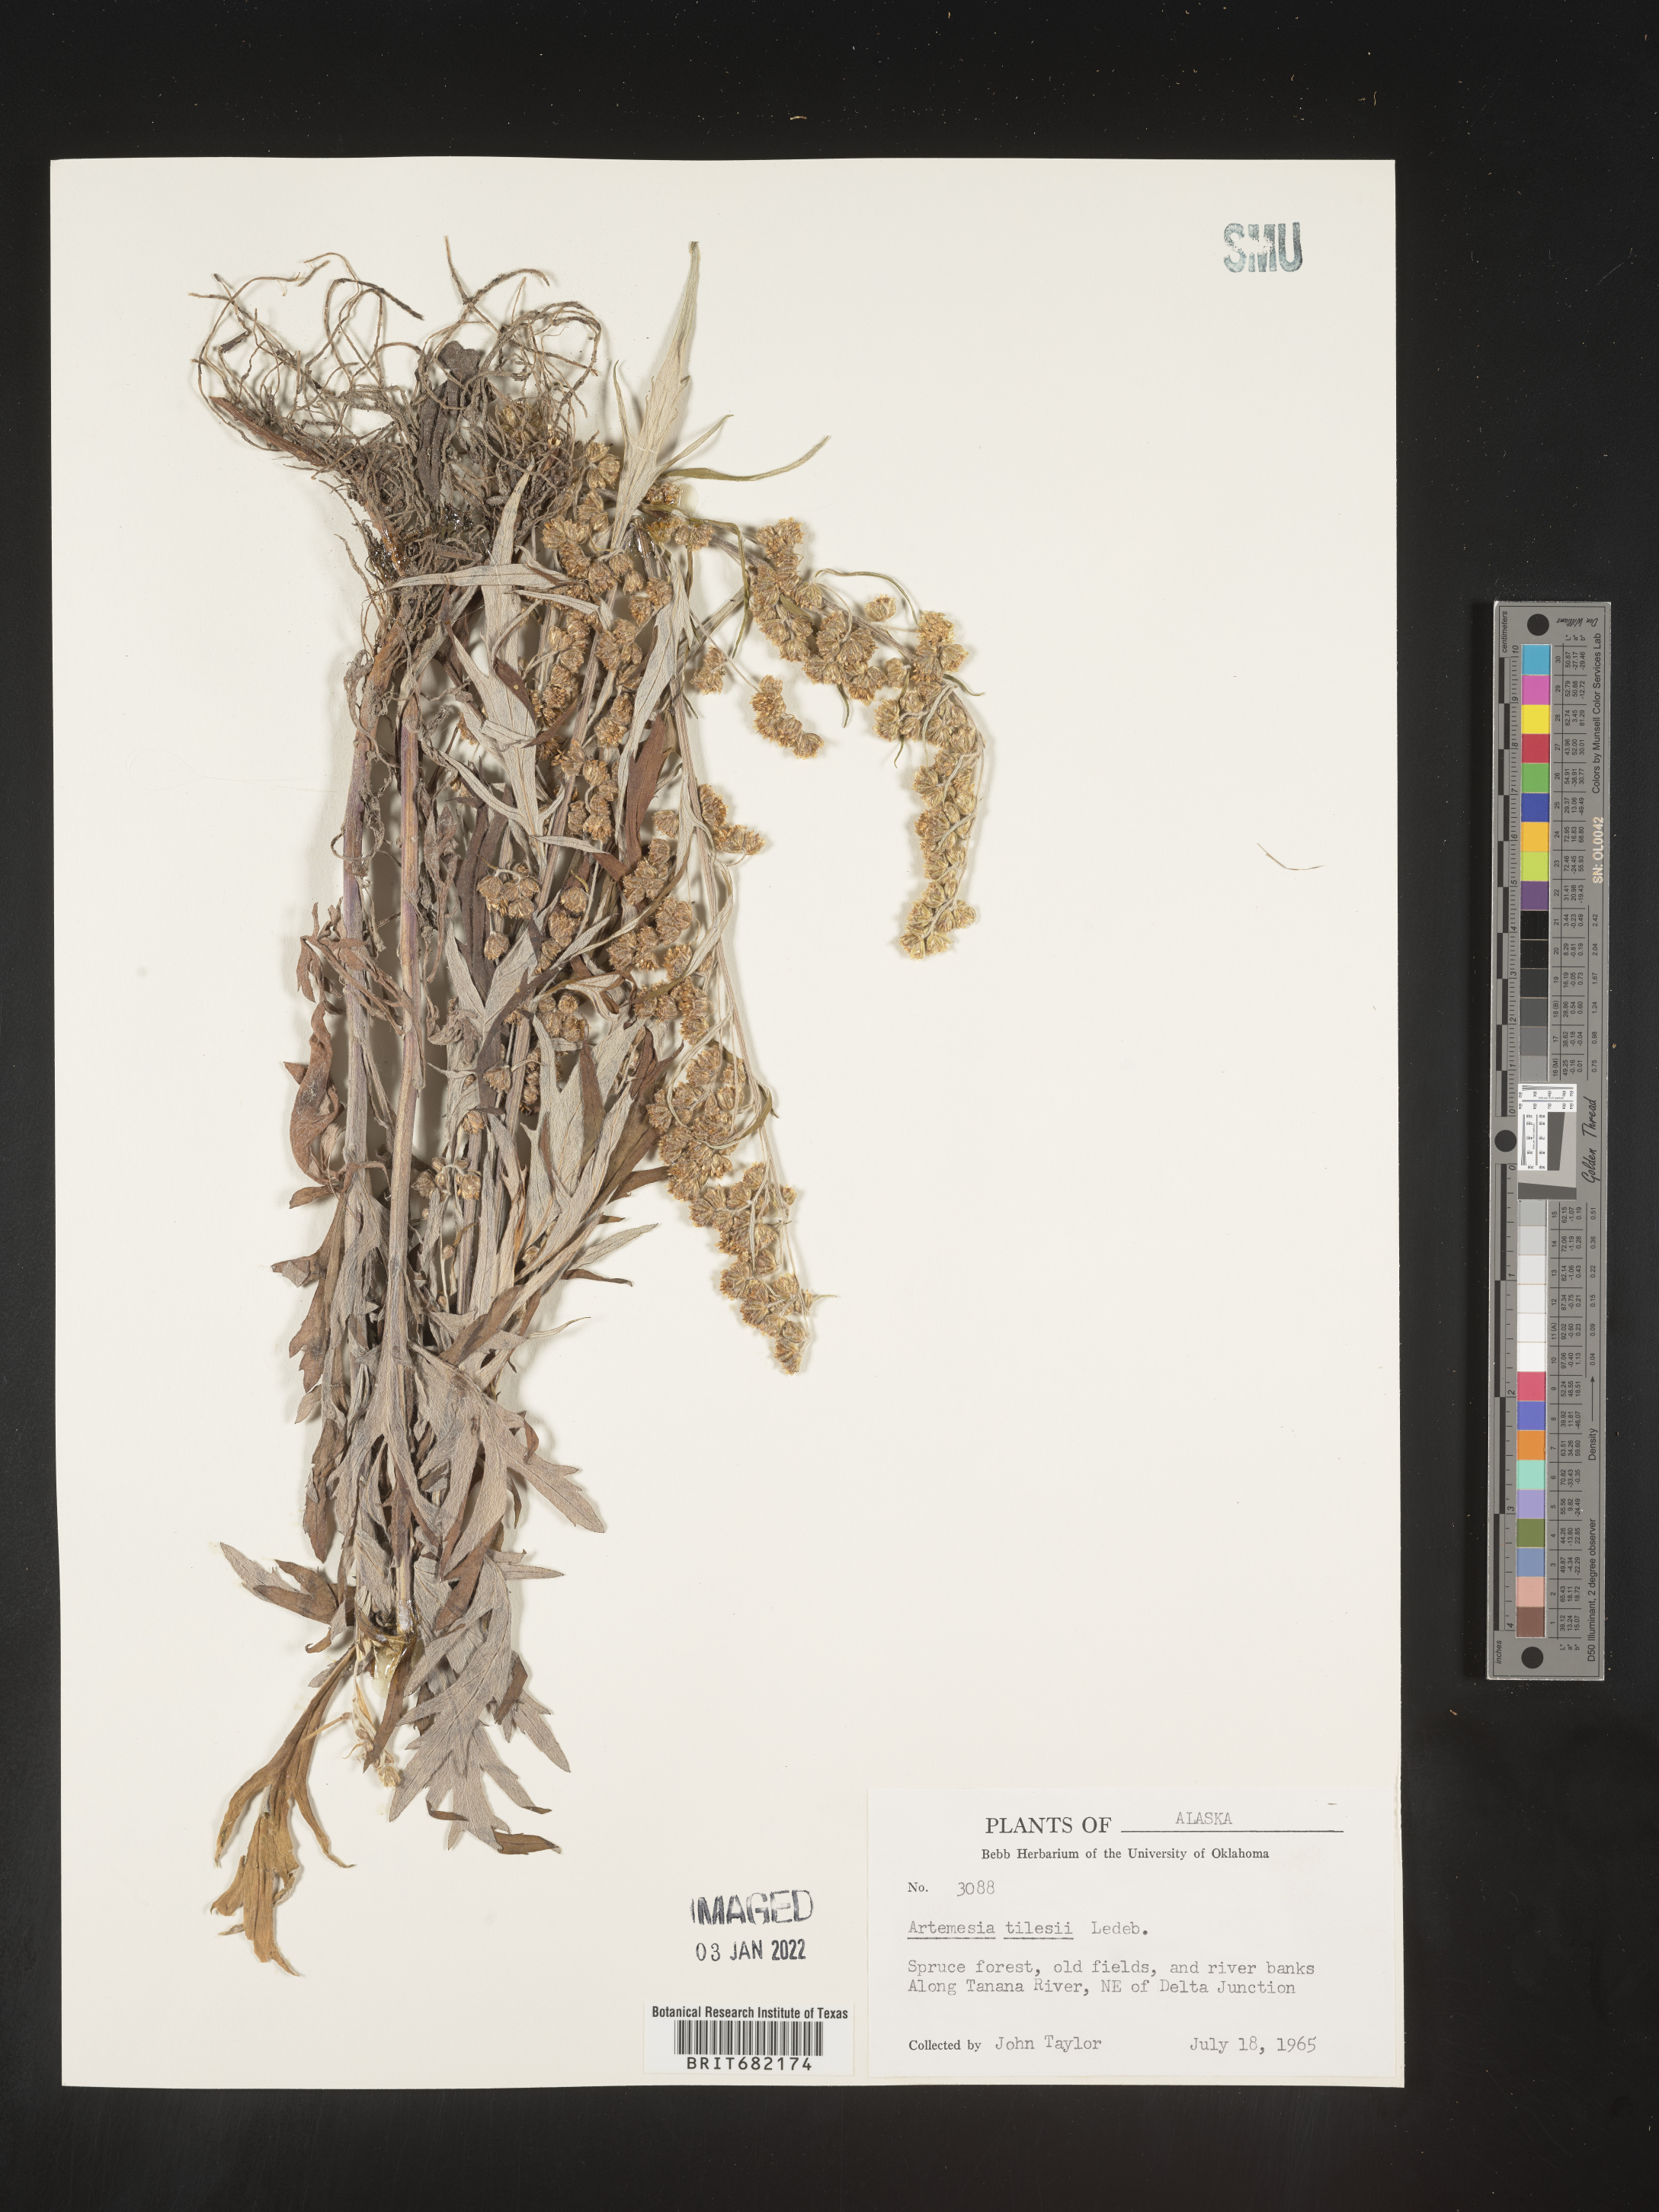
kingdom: Plantae
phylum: Tracheophyta
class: Magnoliopsida
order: Asterales
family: Asteraceae
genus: Artemisia
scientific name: Artemisia tilesii
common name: Aleutian mugwort
